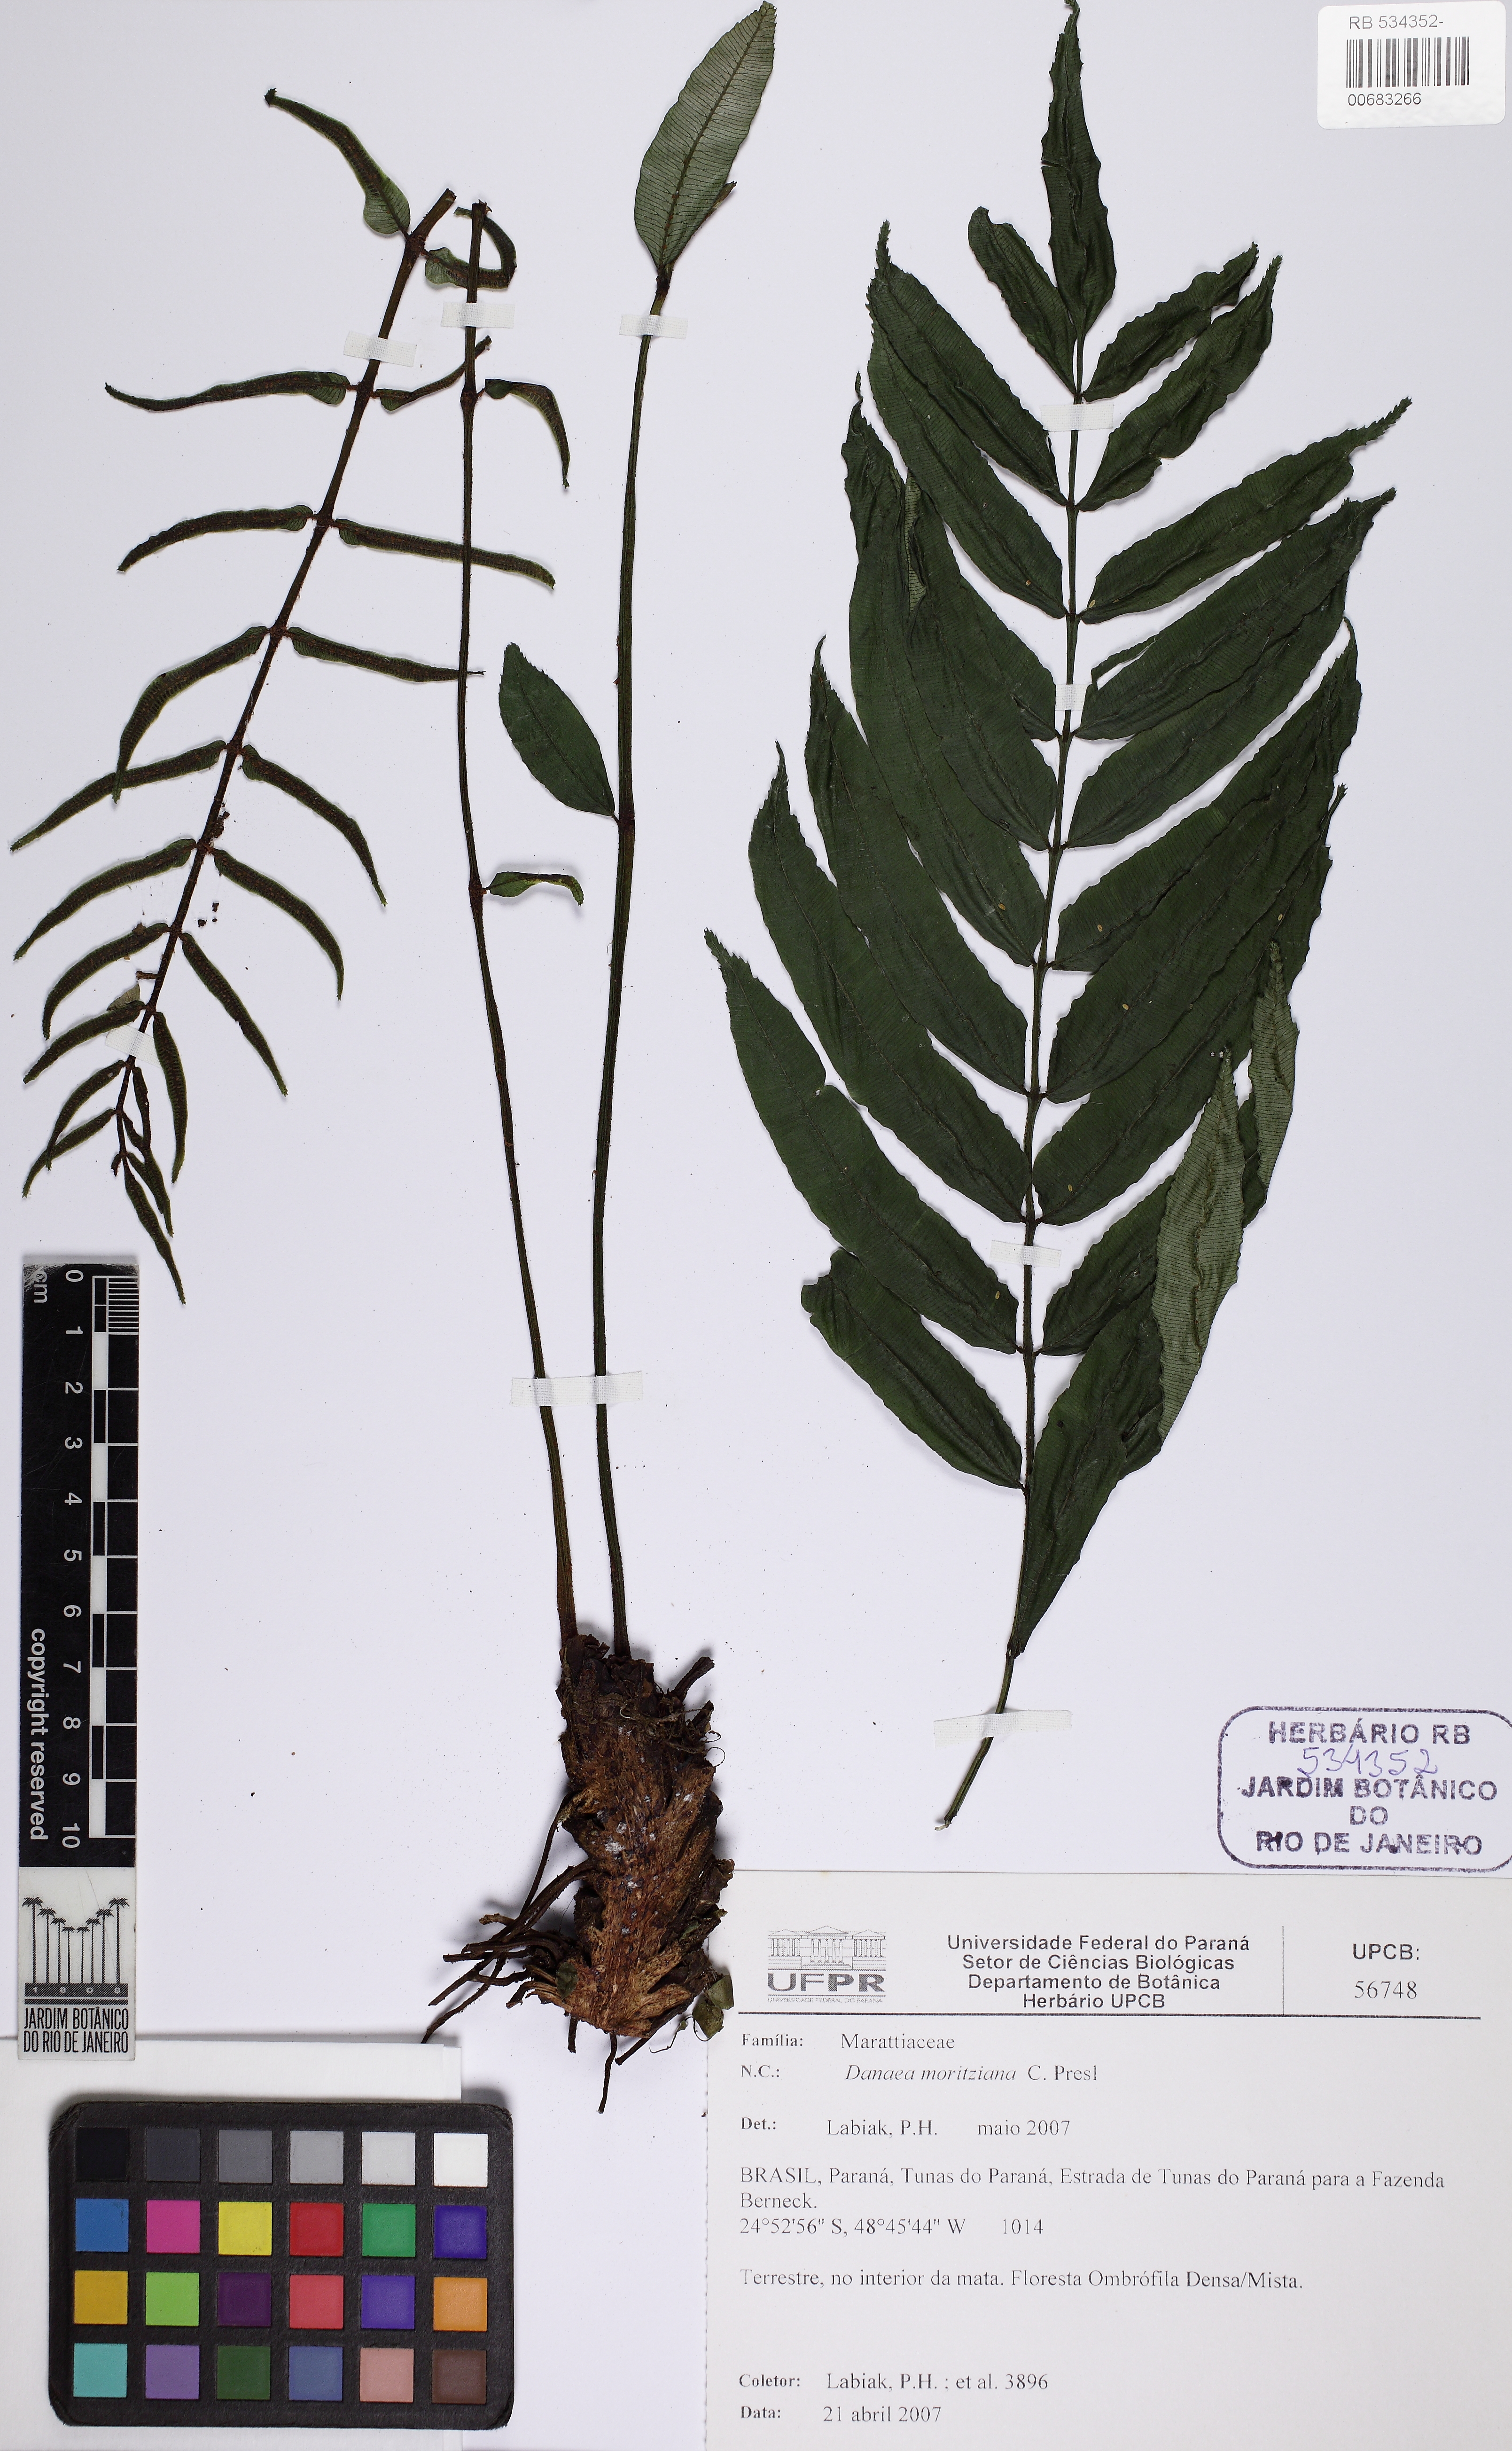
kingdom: Plantae
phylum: Tracheophyta
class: Polypodiopsida
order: Marattiales
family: Marattiaceae
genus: Danaea
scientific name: Danaea moritziana
